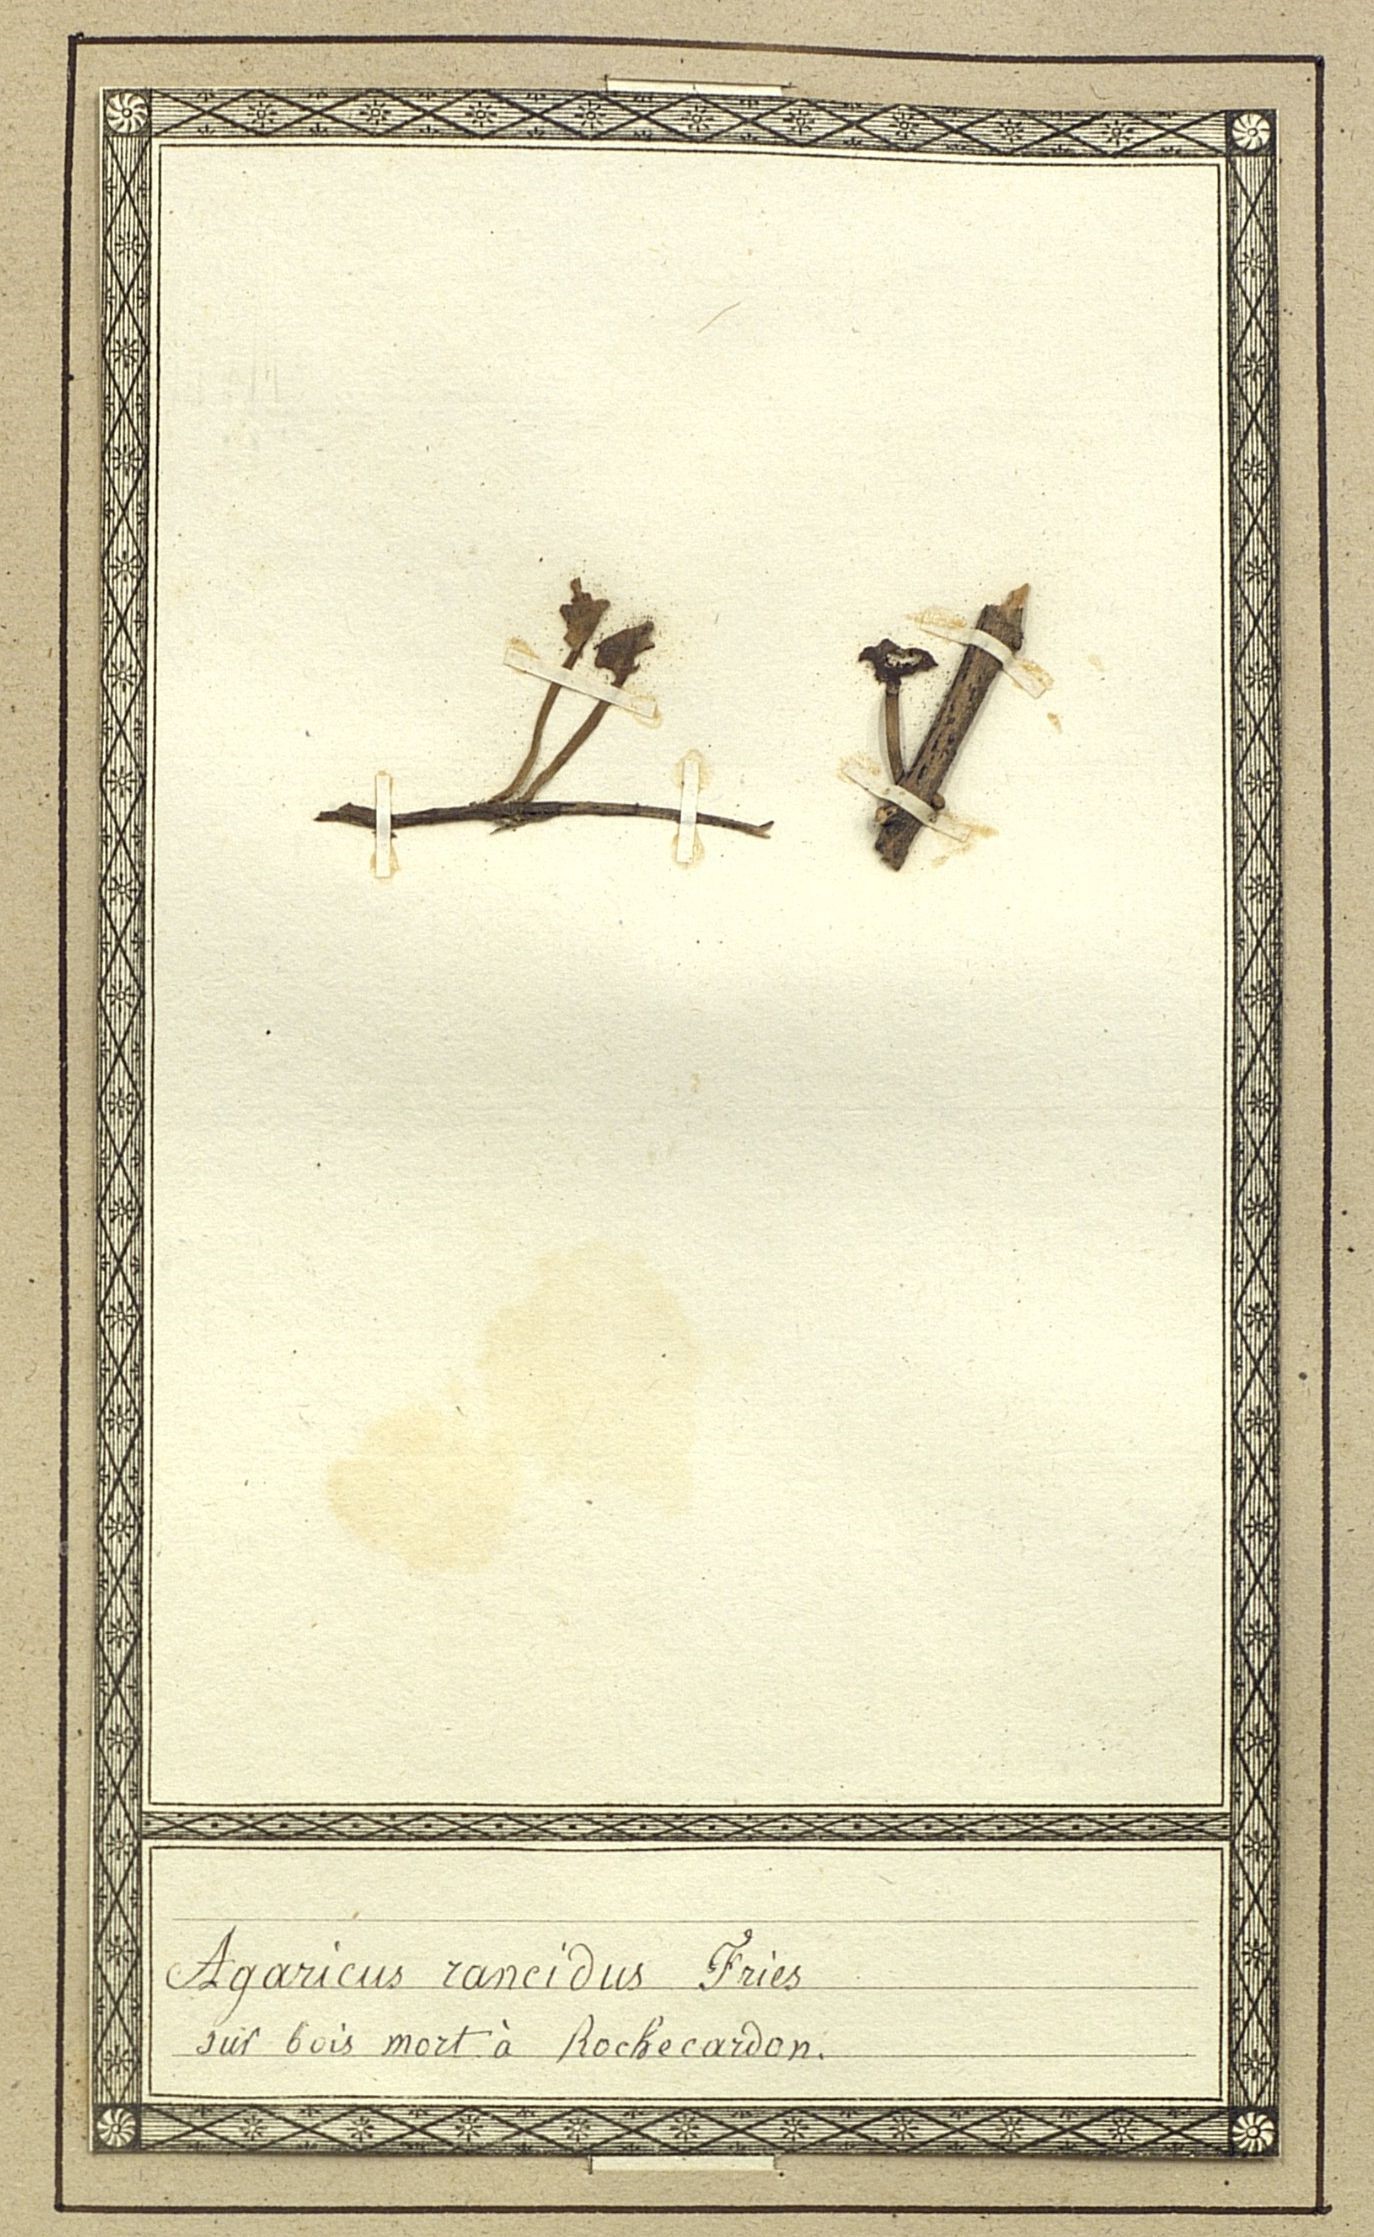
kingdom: Fungi
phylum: Basidiomycota
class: Agaricomycetes
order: Agaricales
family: Lyophyllaceae
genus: Tephrocybe
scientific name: Tephrocybe rancida
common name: Rancid greyling
